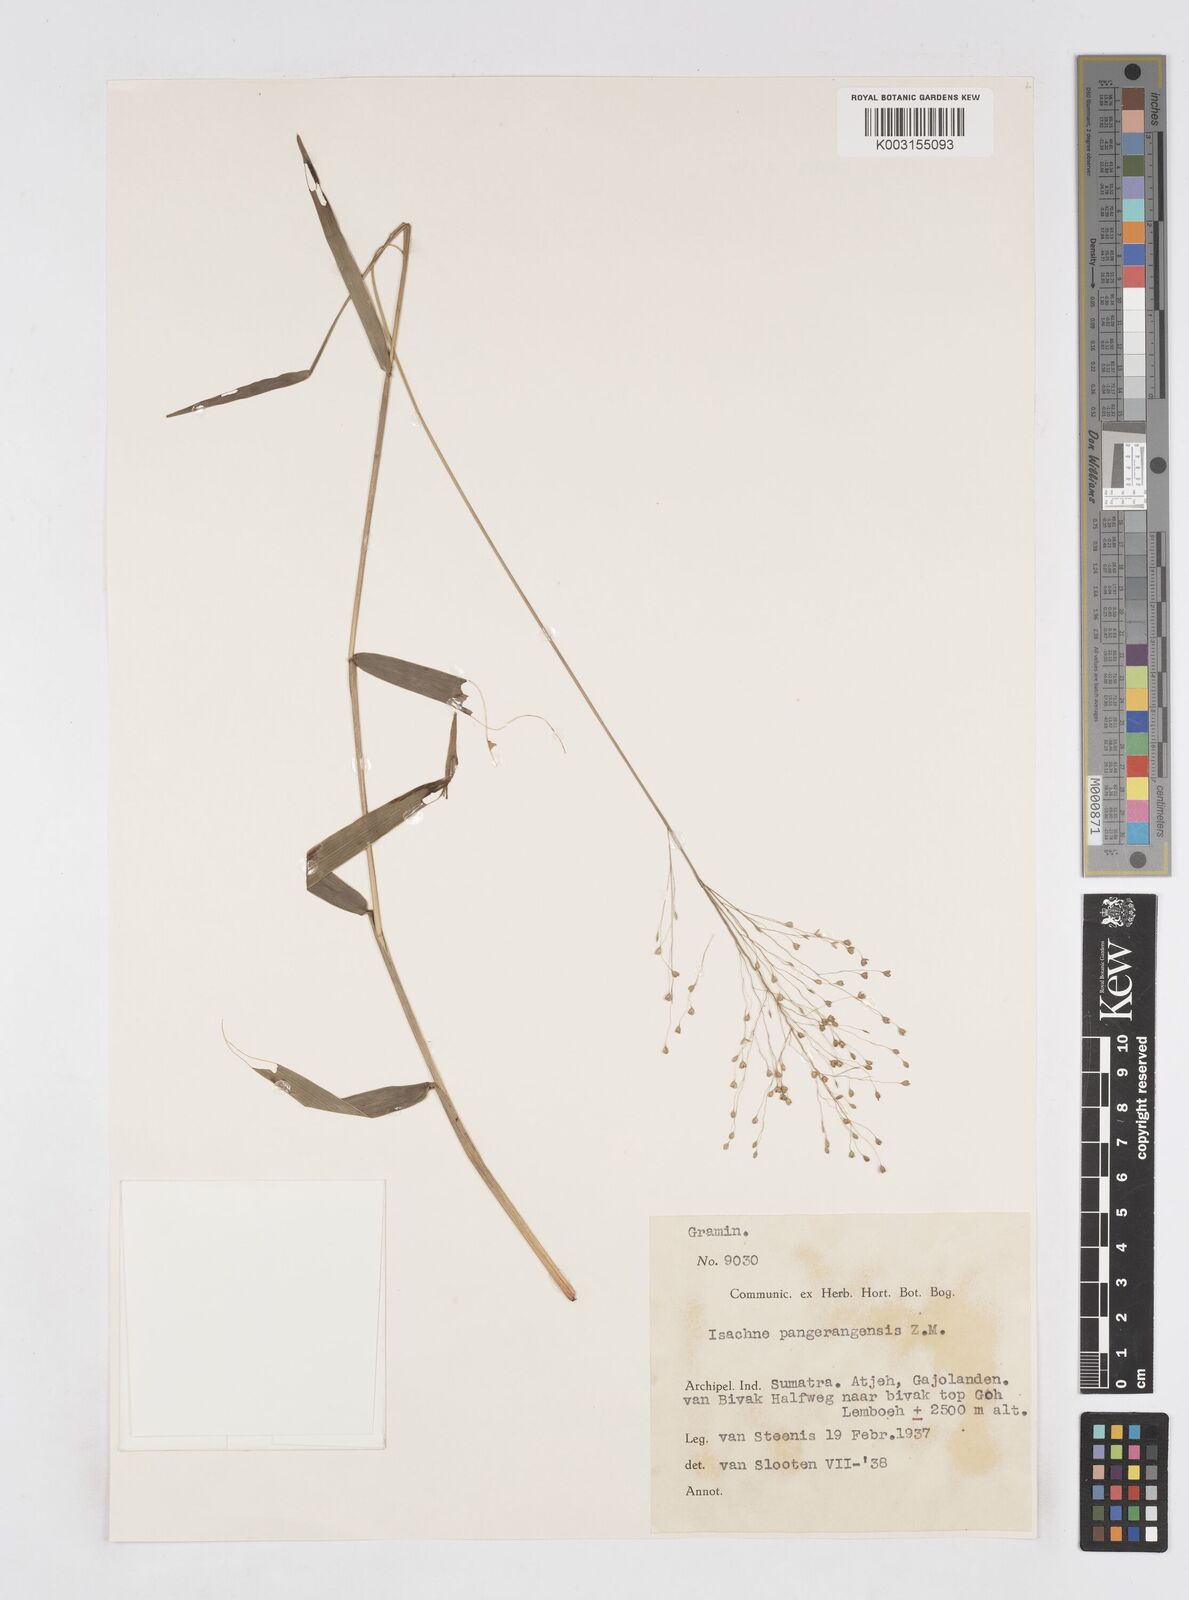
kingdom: Plantae
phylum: Tracheophyta
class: Liliopsida
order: Poales
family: Poaceae
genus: Isachne
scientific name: Isachne
